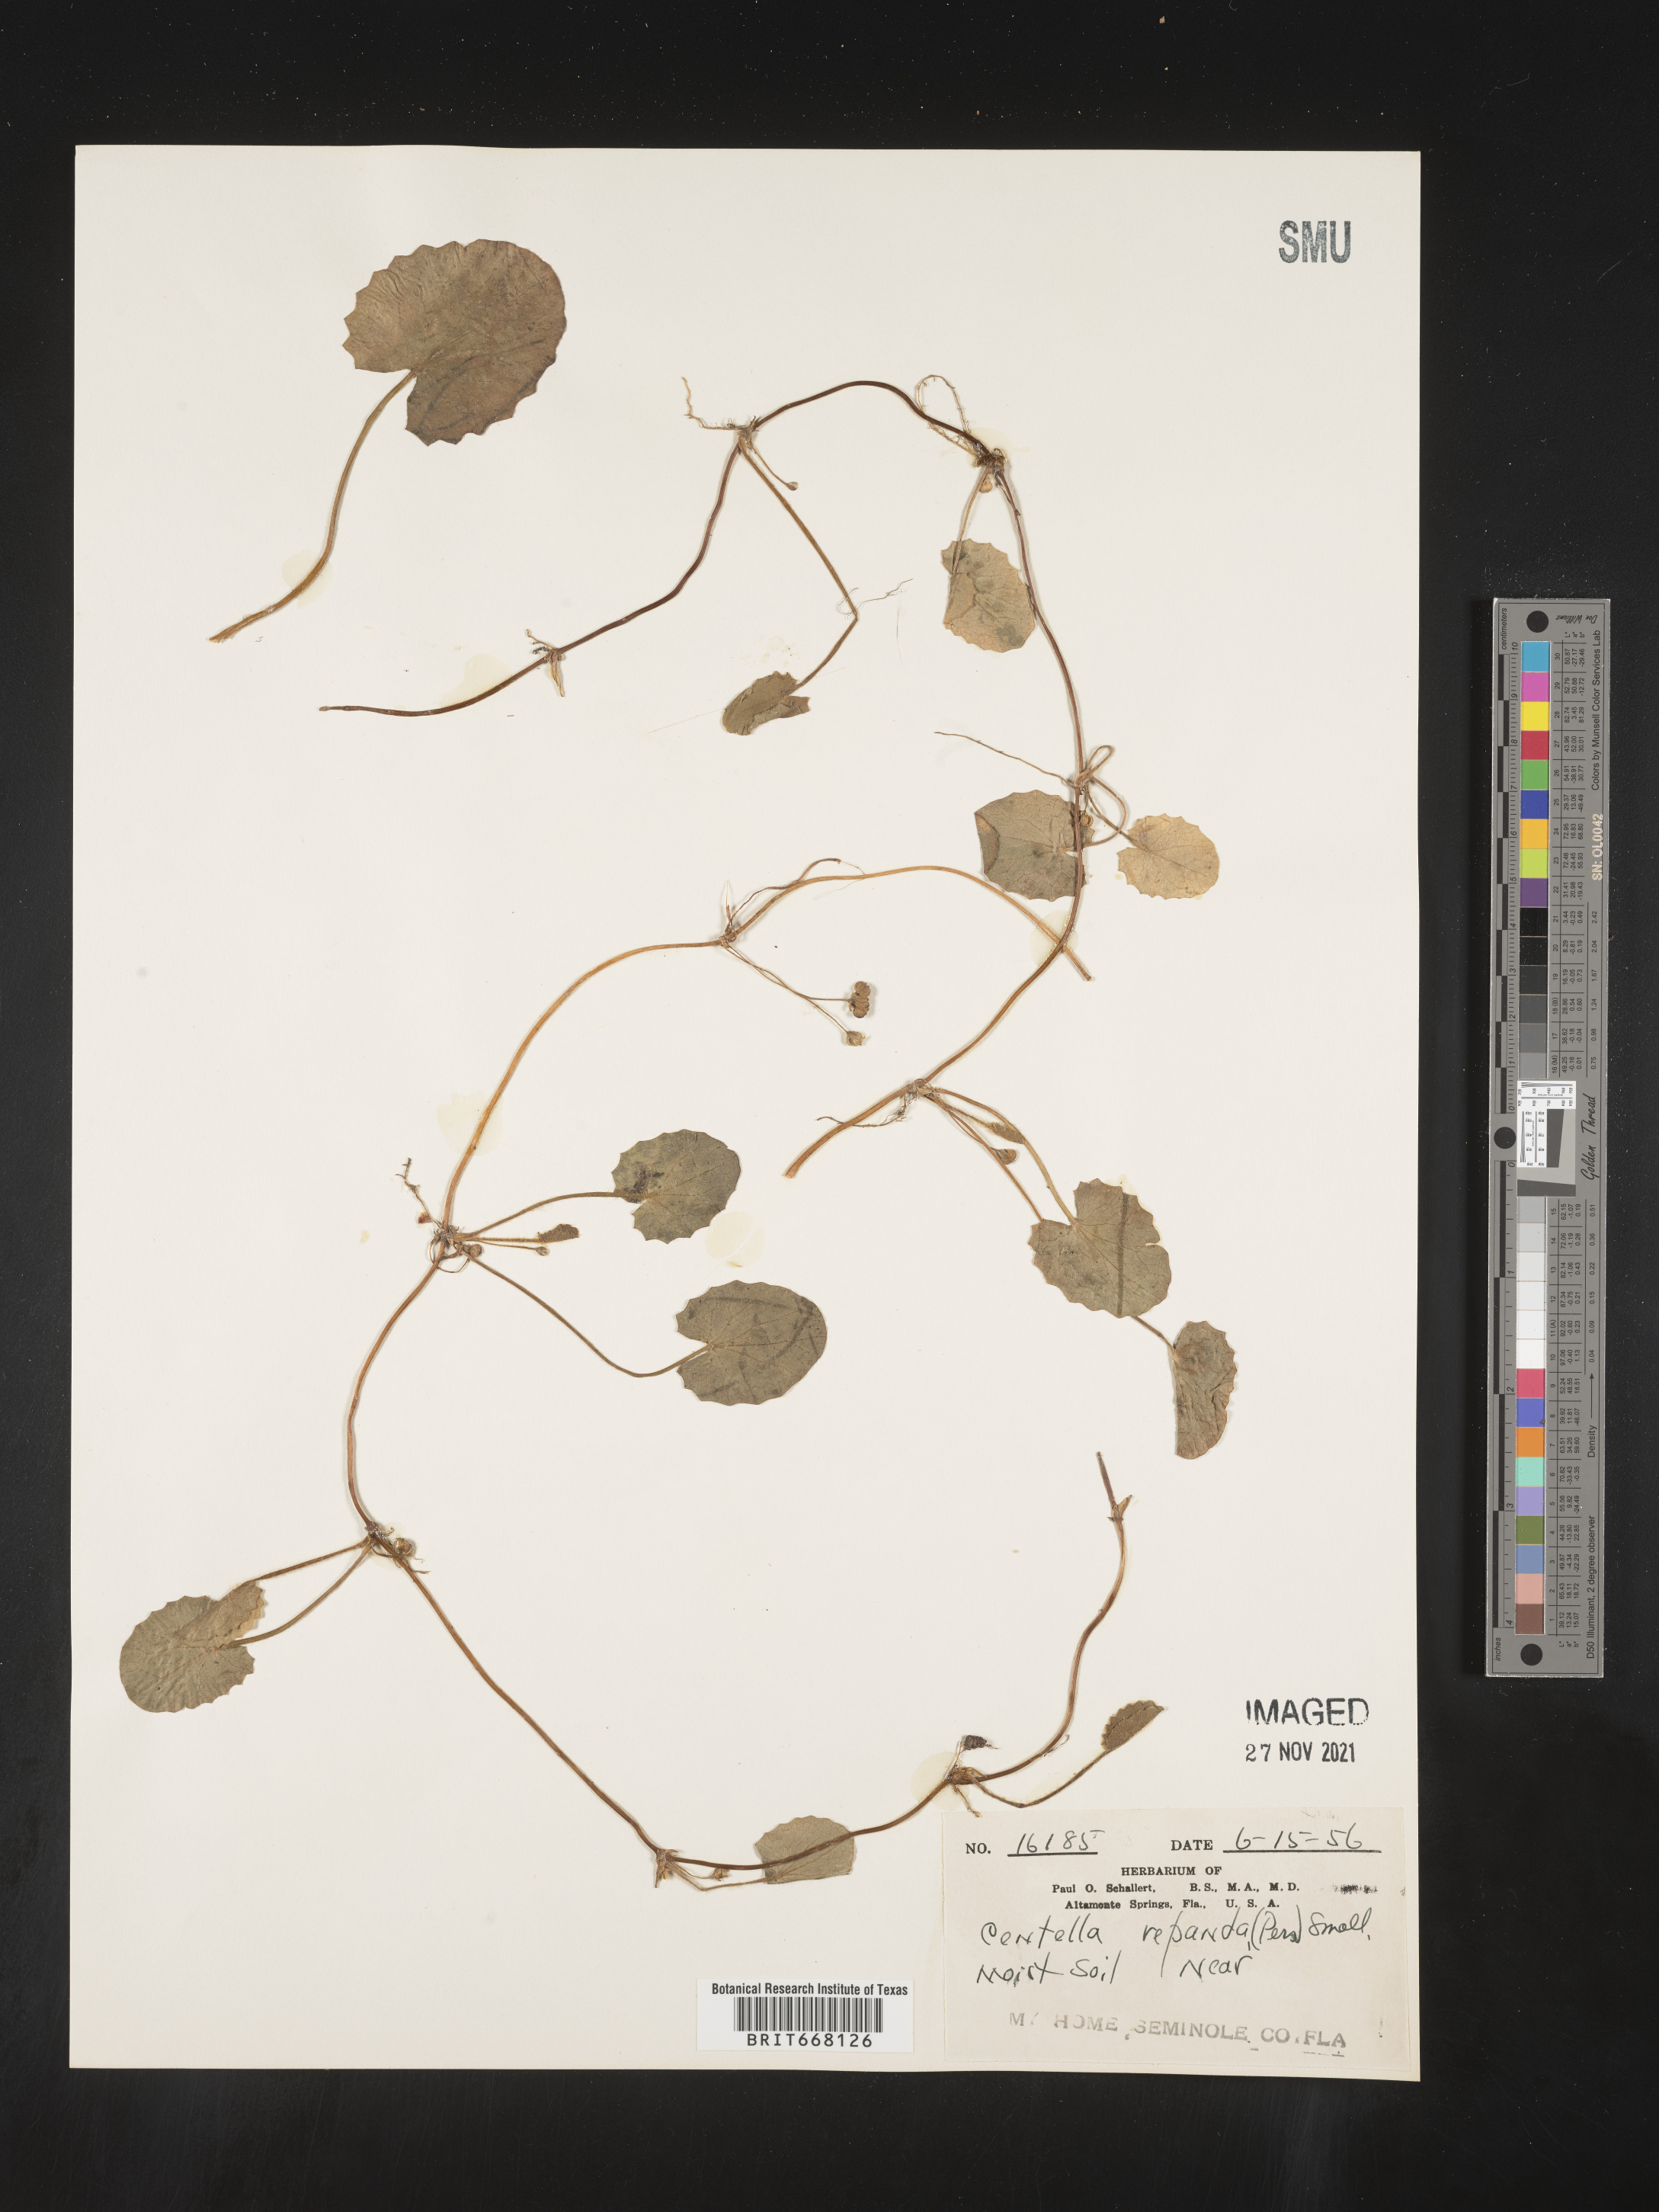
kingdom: Plantae
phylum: Tracheophyta
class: Magnoliopsida
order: Apiales
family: Apiaceae
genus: Centella
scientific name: Centella
